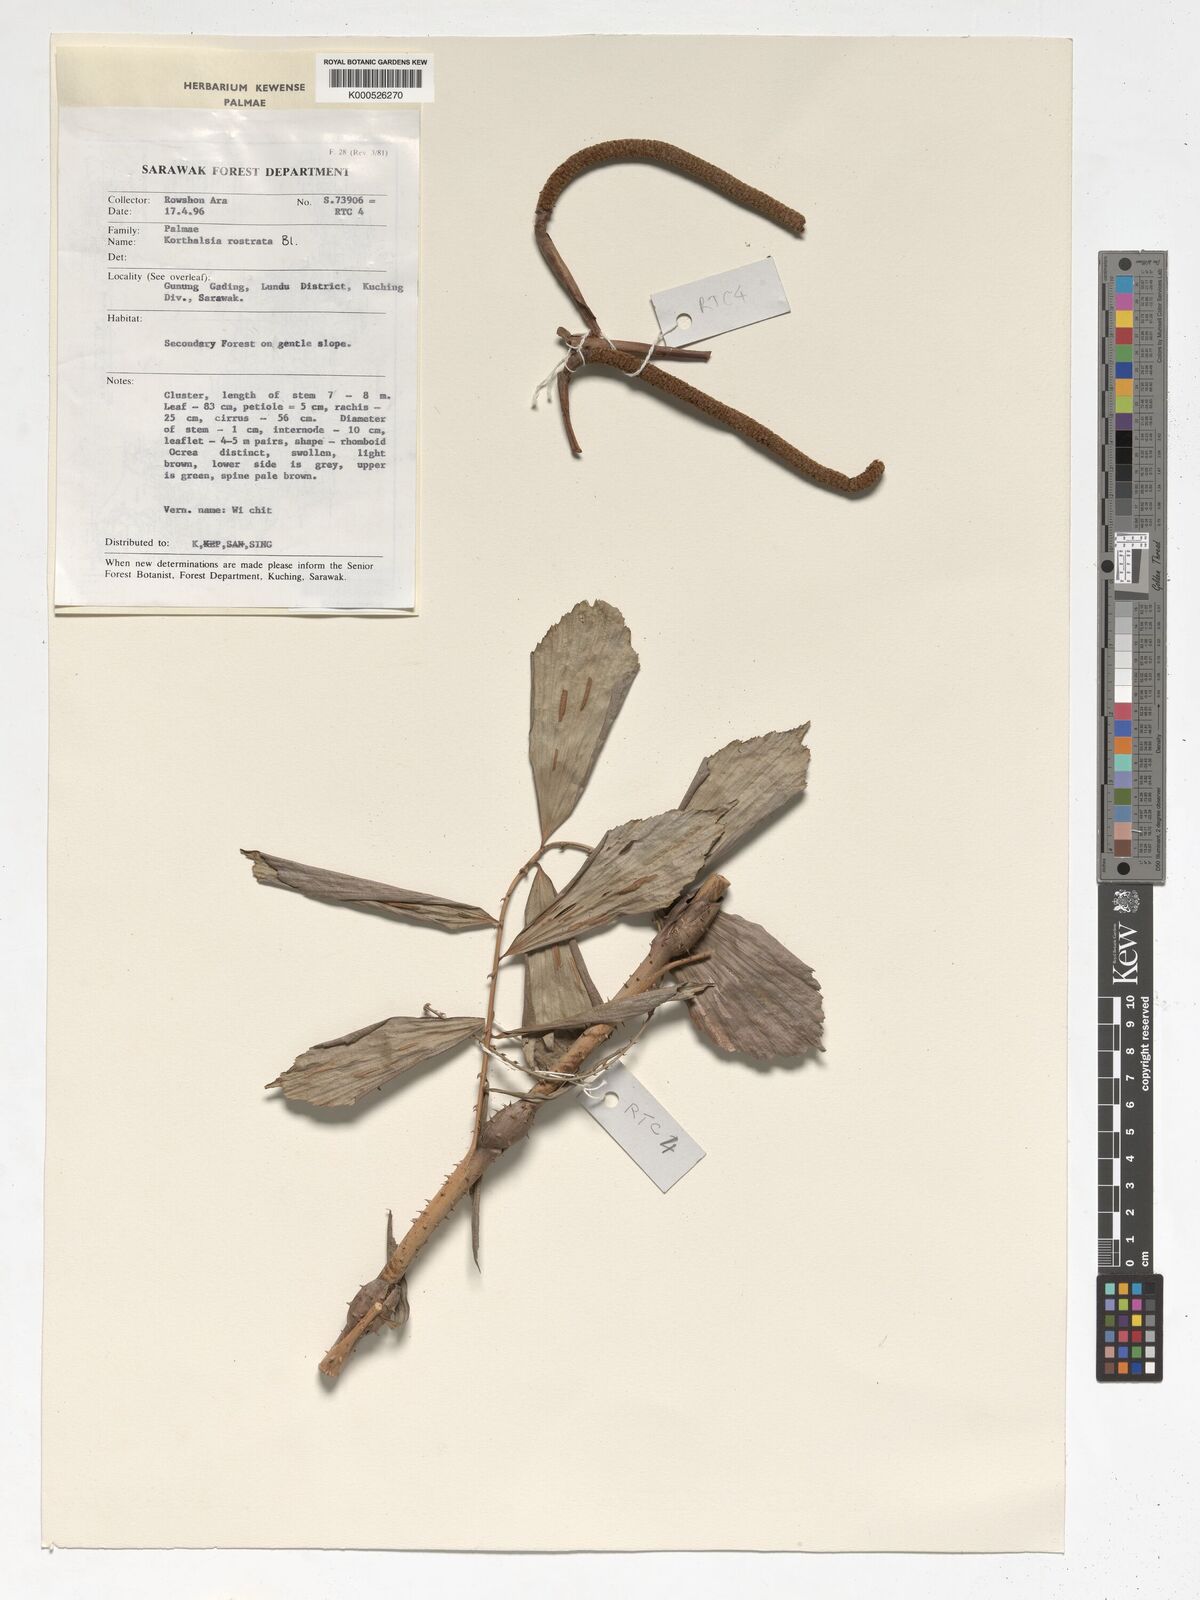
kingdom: Plantae
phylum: Tracheophyta
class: Liliopsida
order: Arecales
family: Arecaceae
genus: Korthalsia
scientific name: Korthalsia rostrata
